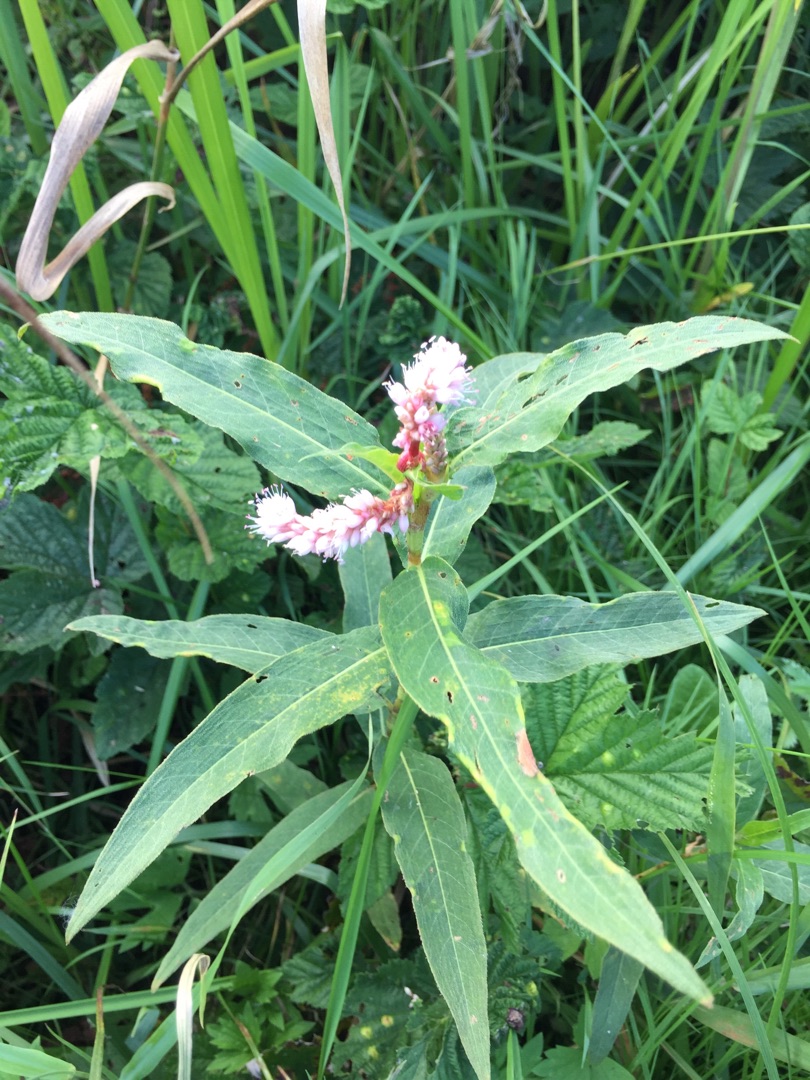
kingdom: Plantae
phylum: Tracheophyta
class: Magnoliopsida
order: Caryophyllales
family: Polygonaceae
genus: Persicaria
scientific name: Persicaria amphibia
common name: Vand-pileurt
